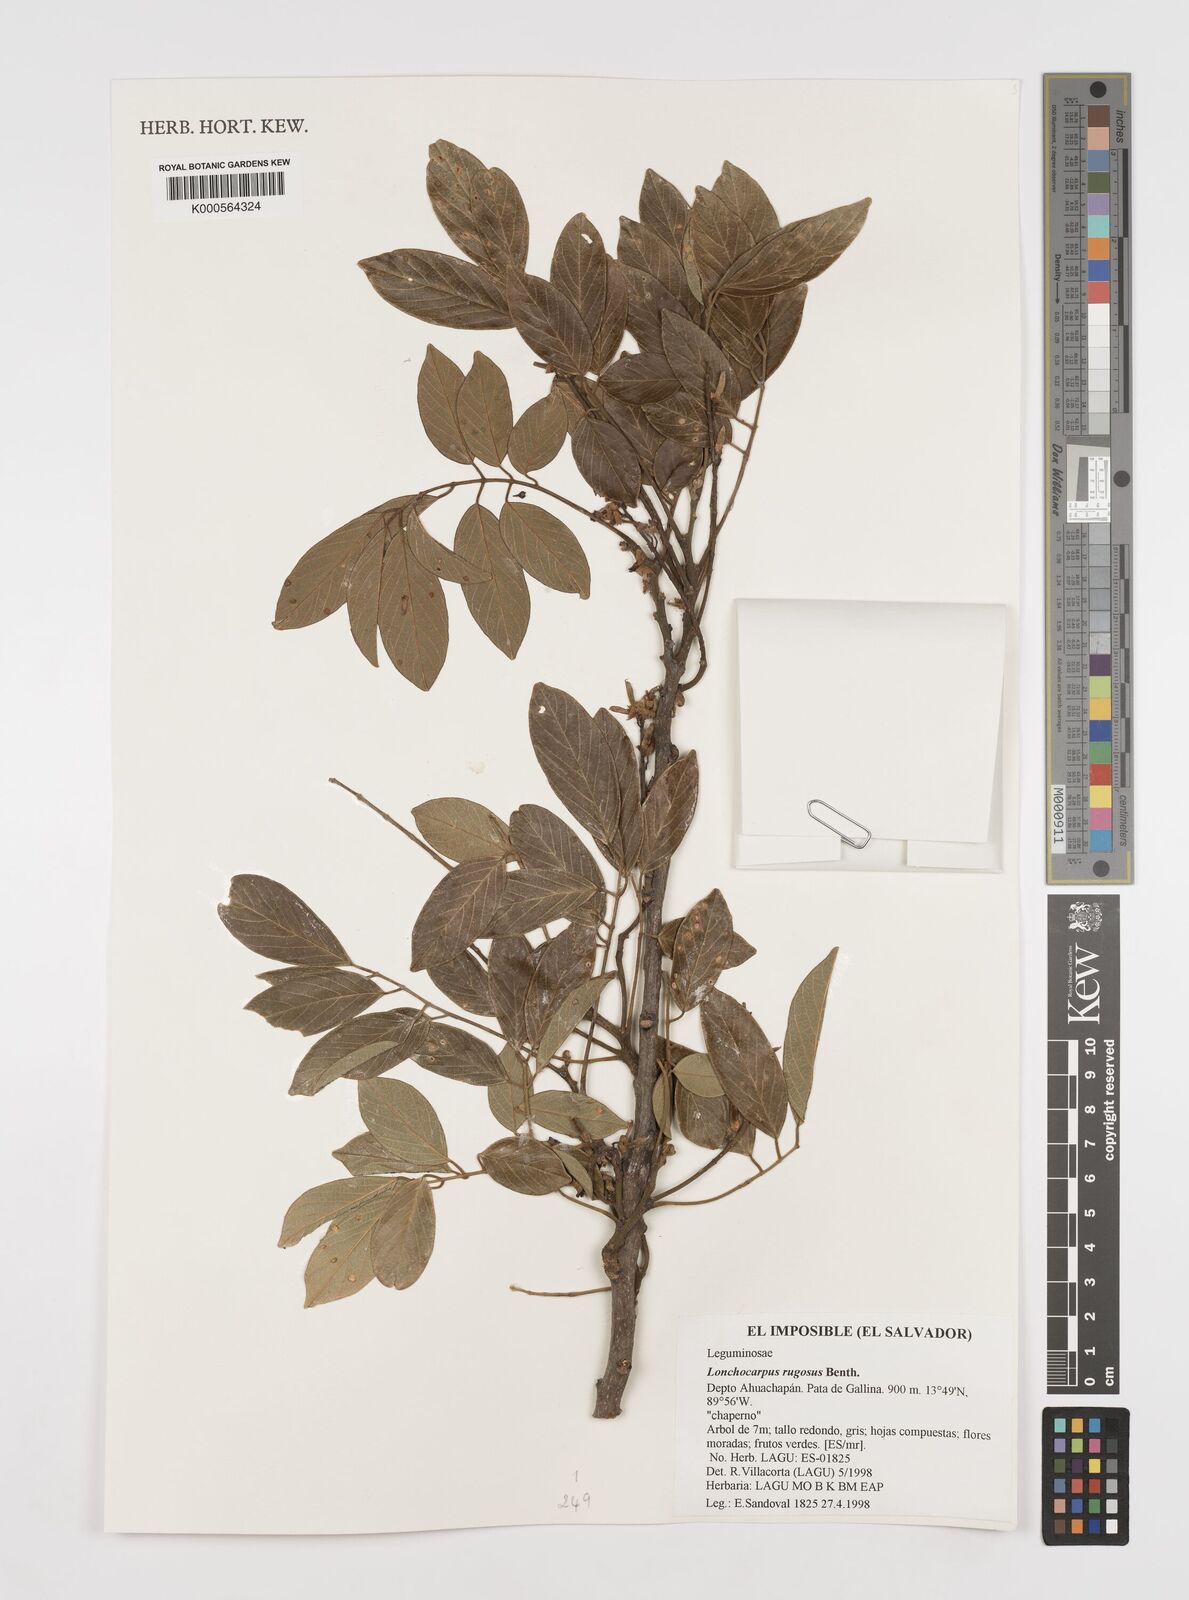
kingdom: Plantae
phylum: Tracheophyta
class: Magnoliopsida
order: Fabales
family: Fabaceae
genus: Lonchocarpus
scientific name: Lonchocarpus rugosus
